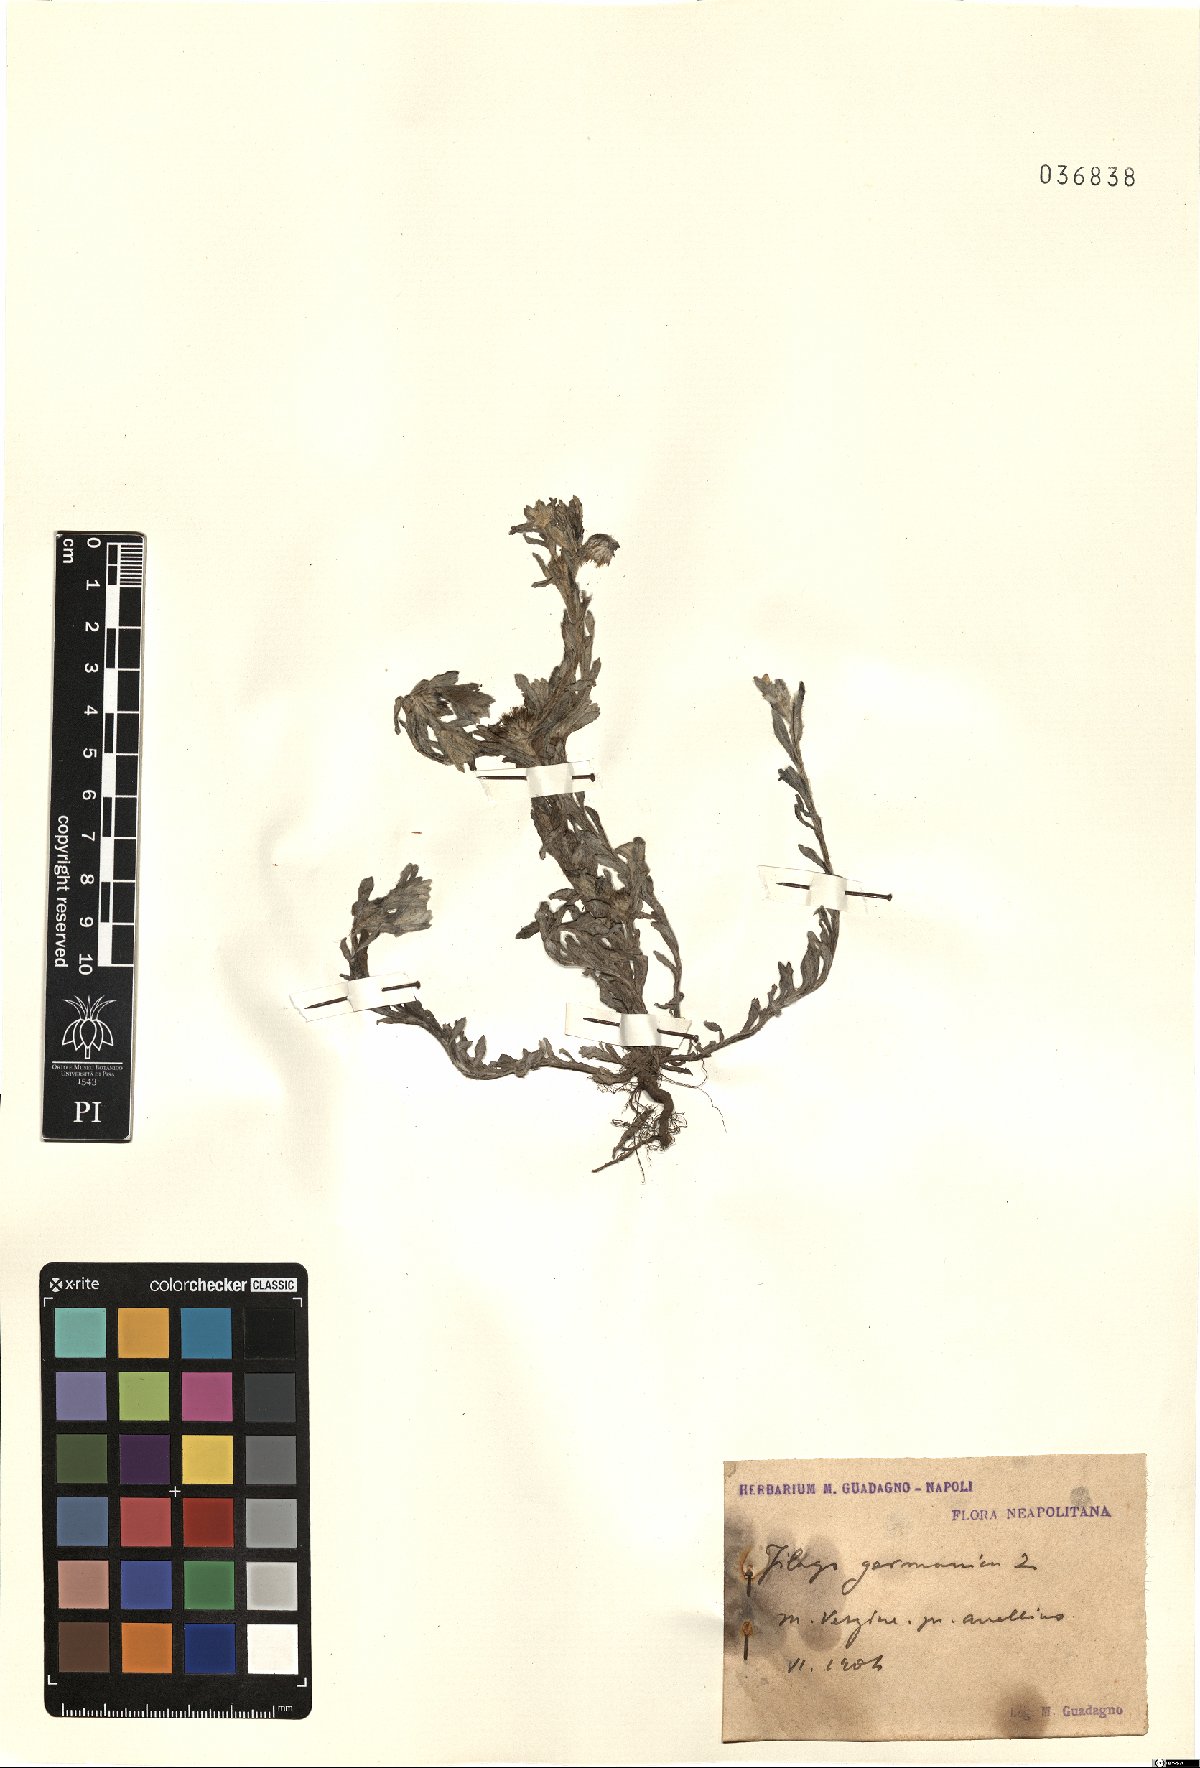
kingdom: Plantae
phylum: Tracheophyta
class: Magnoliopsida
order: Asterales
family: Asteraceae
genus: Filago
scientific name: Filago germanica
